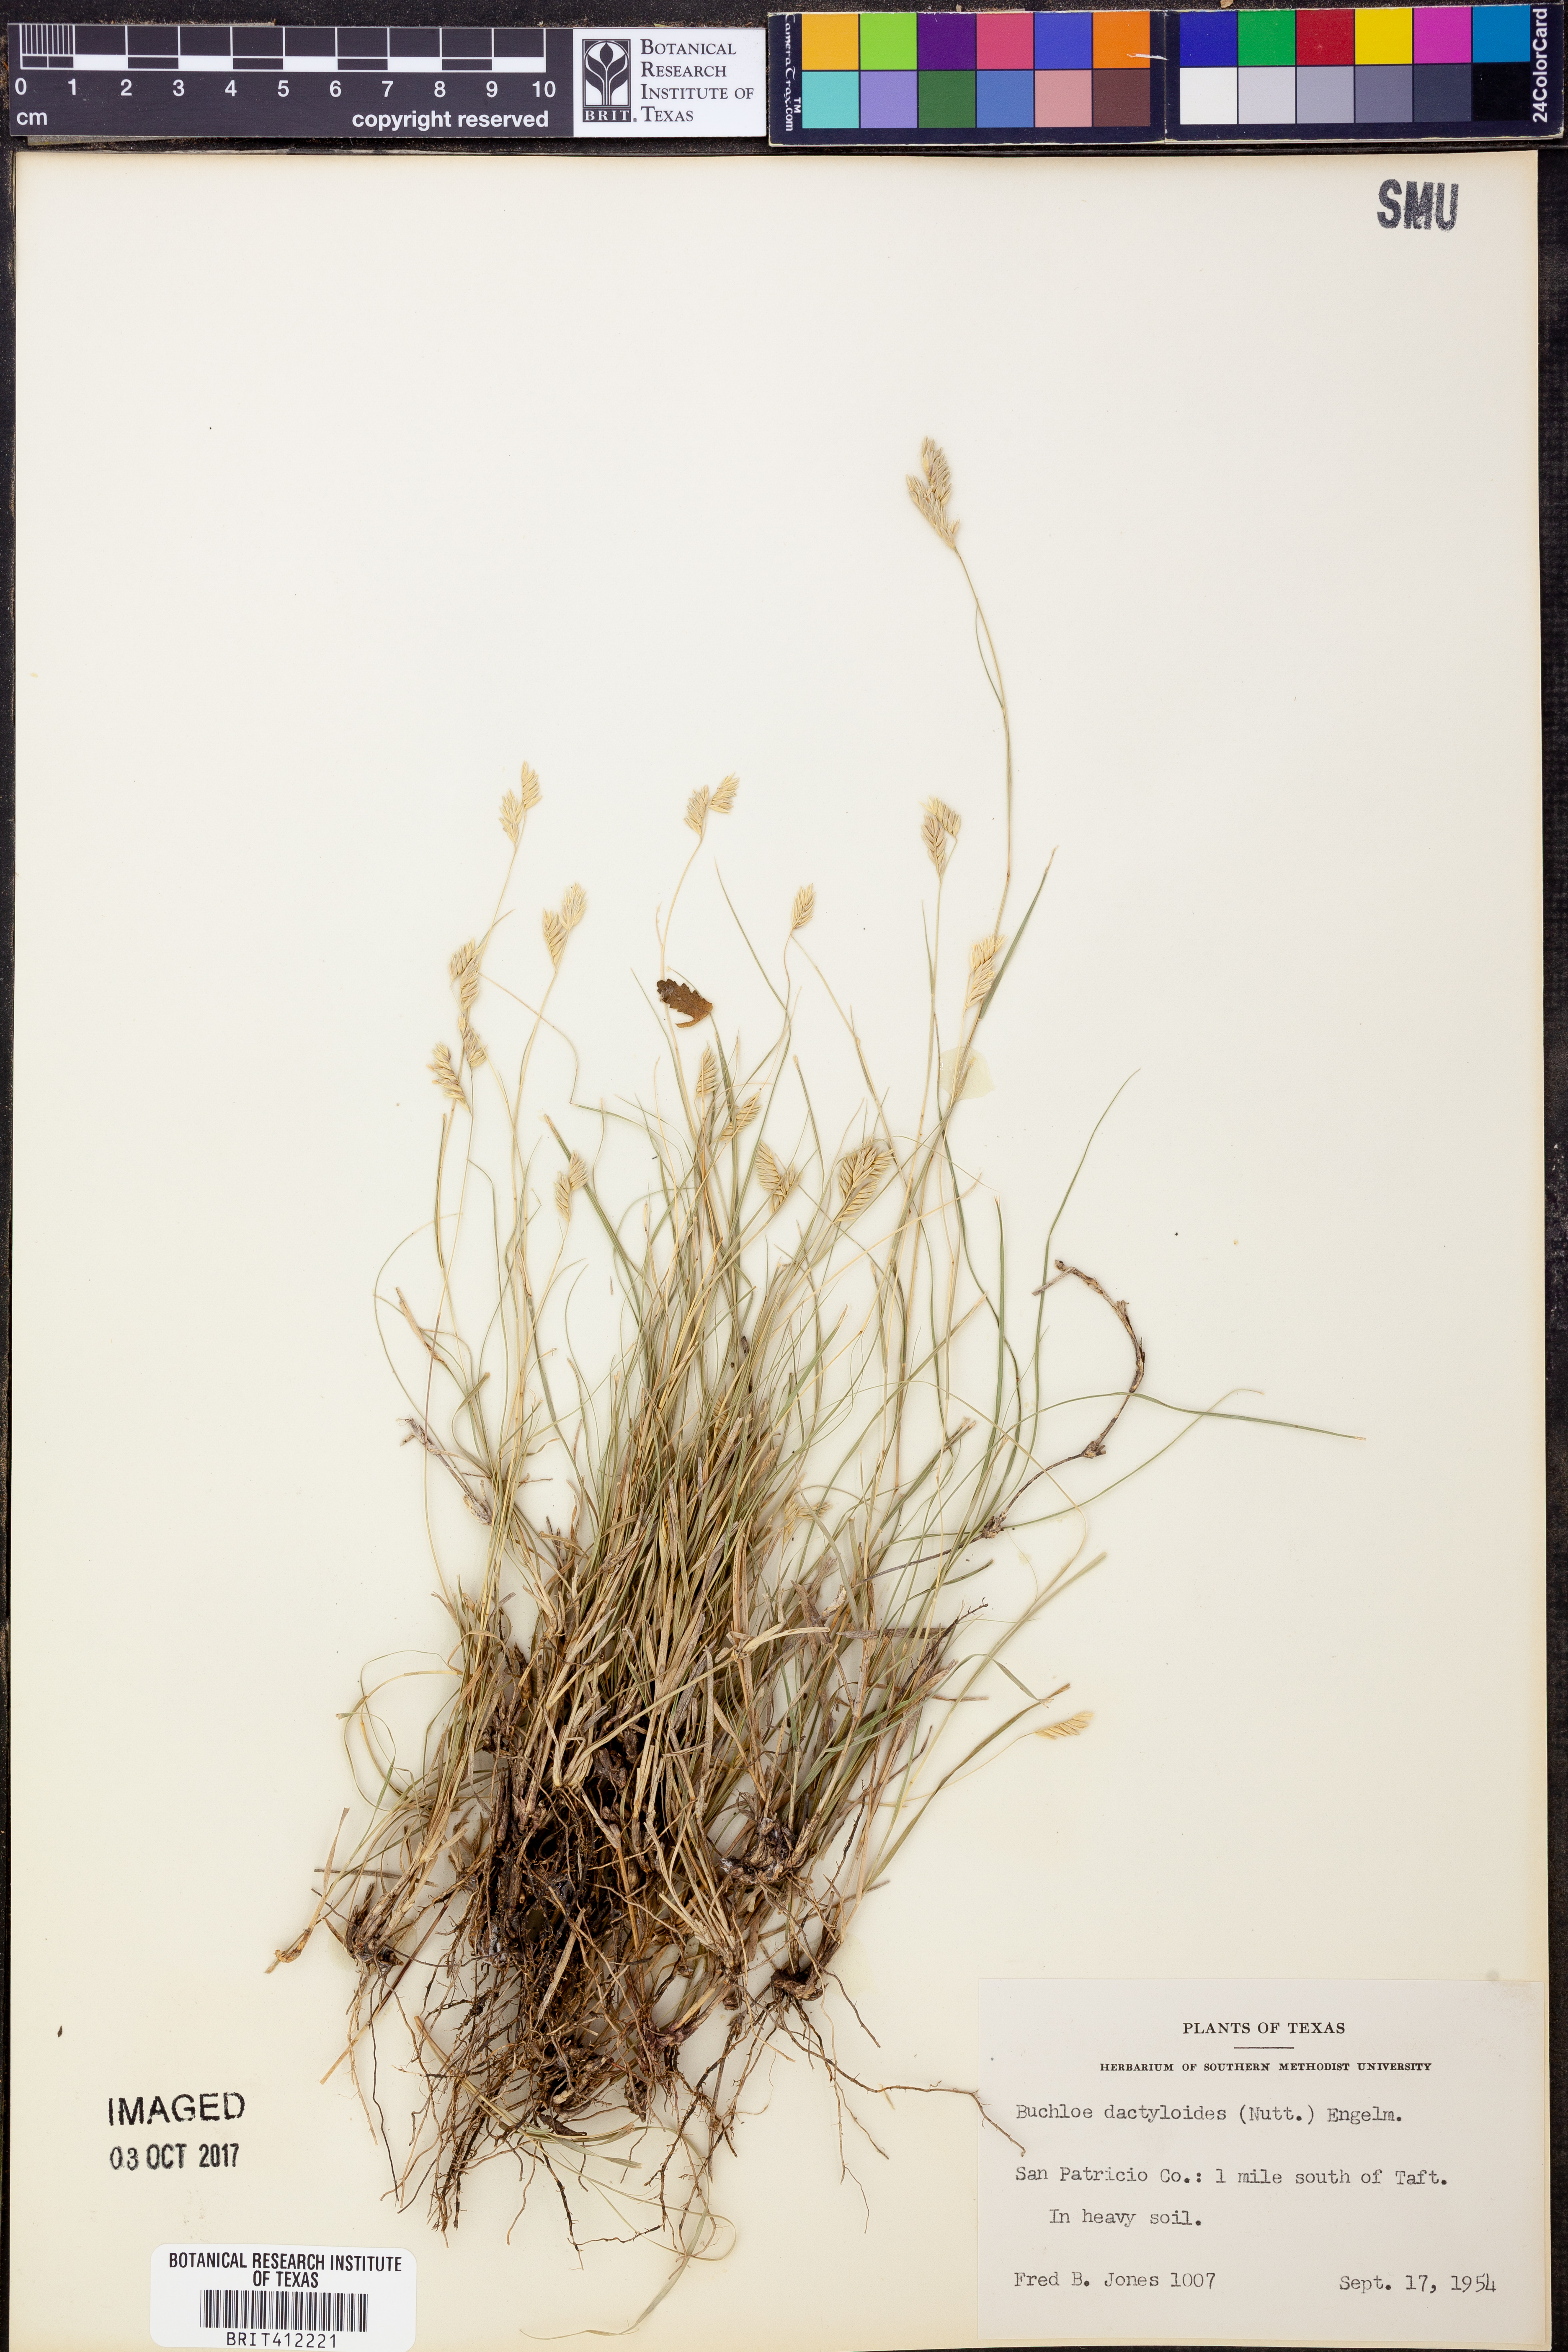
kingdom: Plantae
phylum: Tracheophyta
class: Liliopsida
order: Poales
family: Poaceae
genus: Bouteloua
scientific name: Bouteloua dactyloides
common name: Buffalo grass
